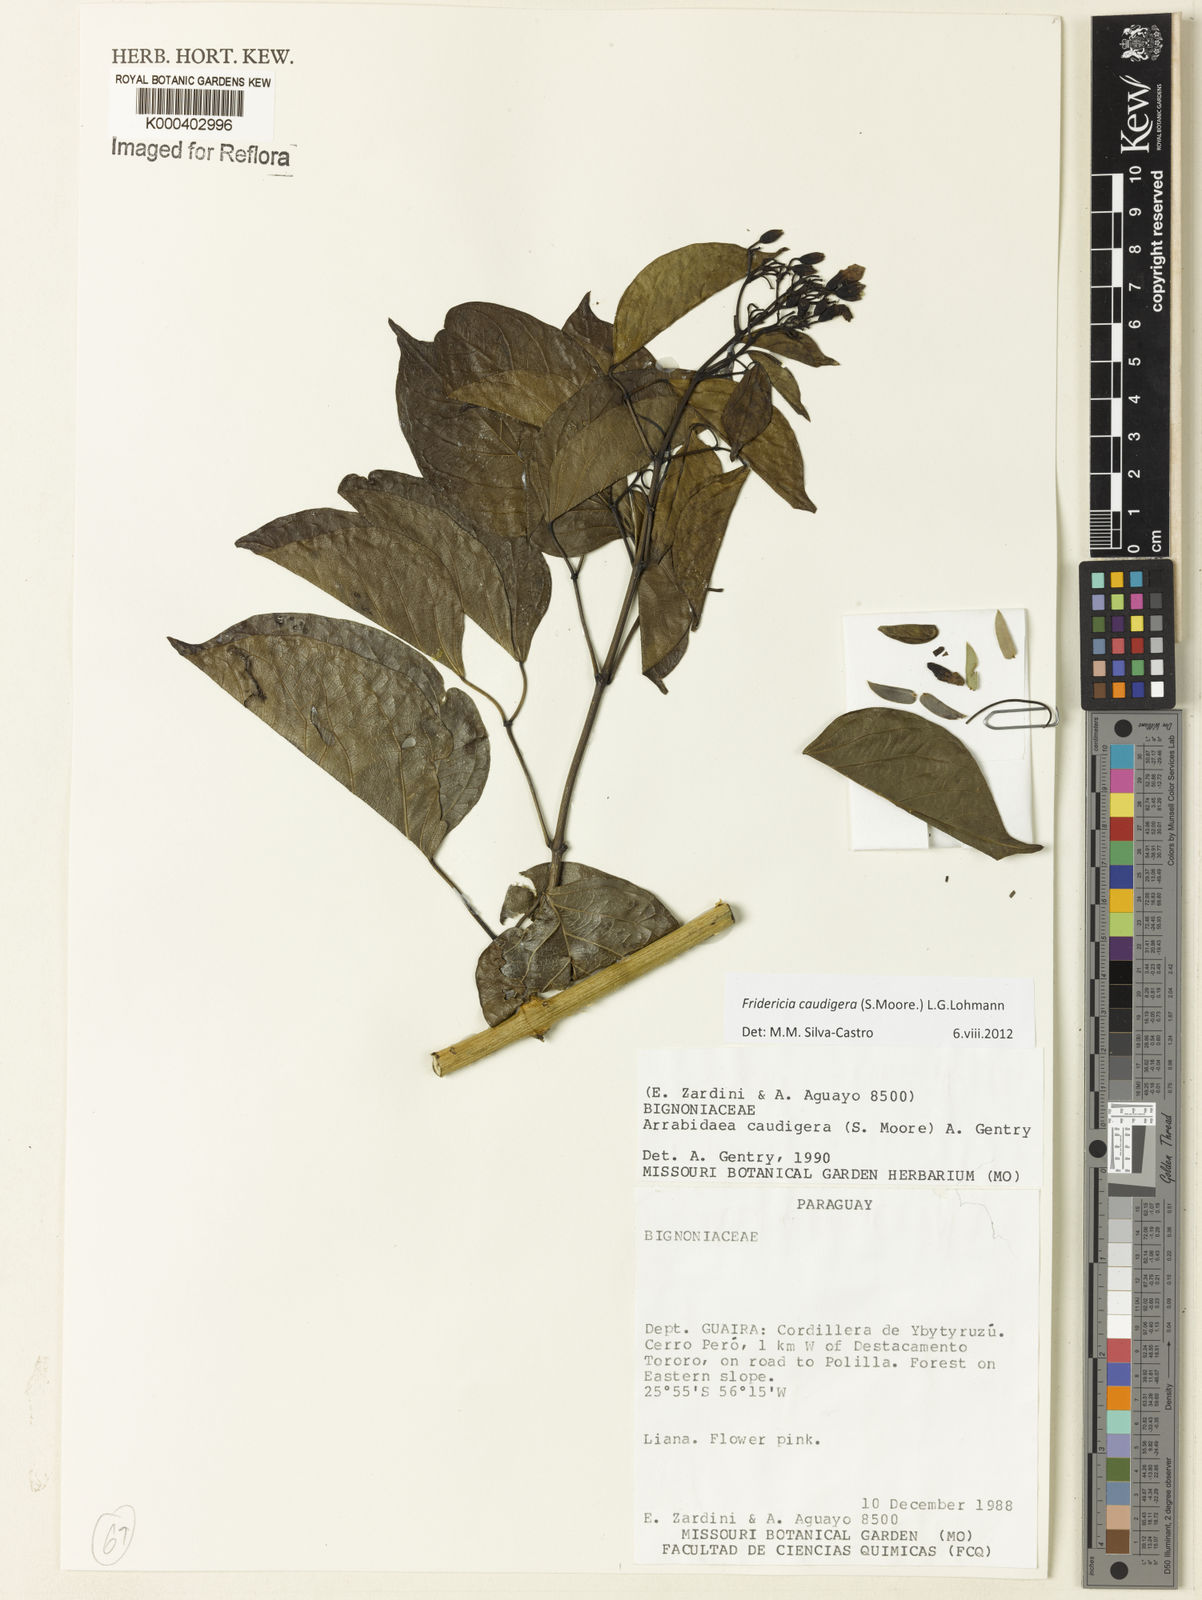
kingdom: Plantae
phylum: Tracheophyta
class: Magnoliopsida
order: Lamiales
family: Bignoniaceae
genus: Fridericia
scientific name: Fridericia caudigera
